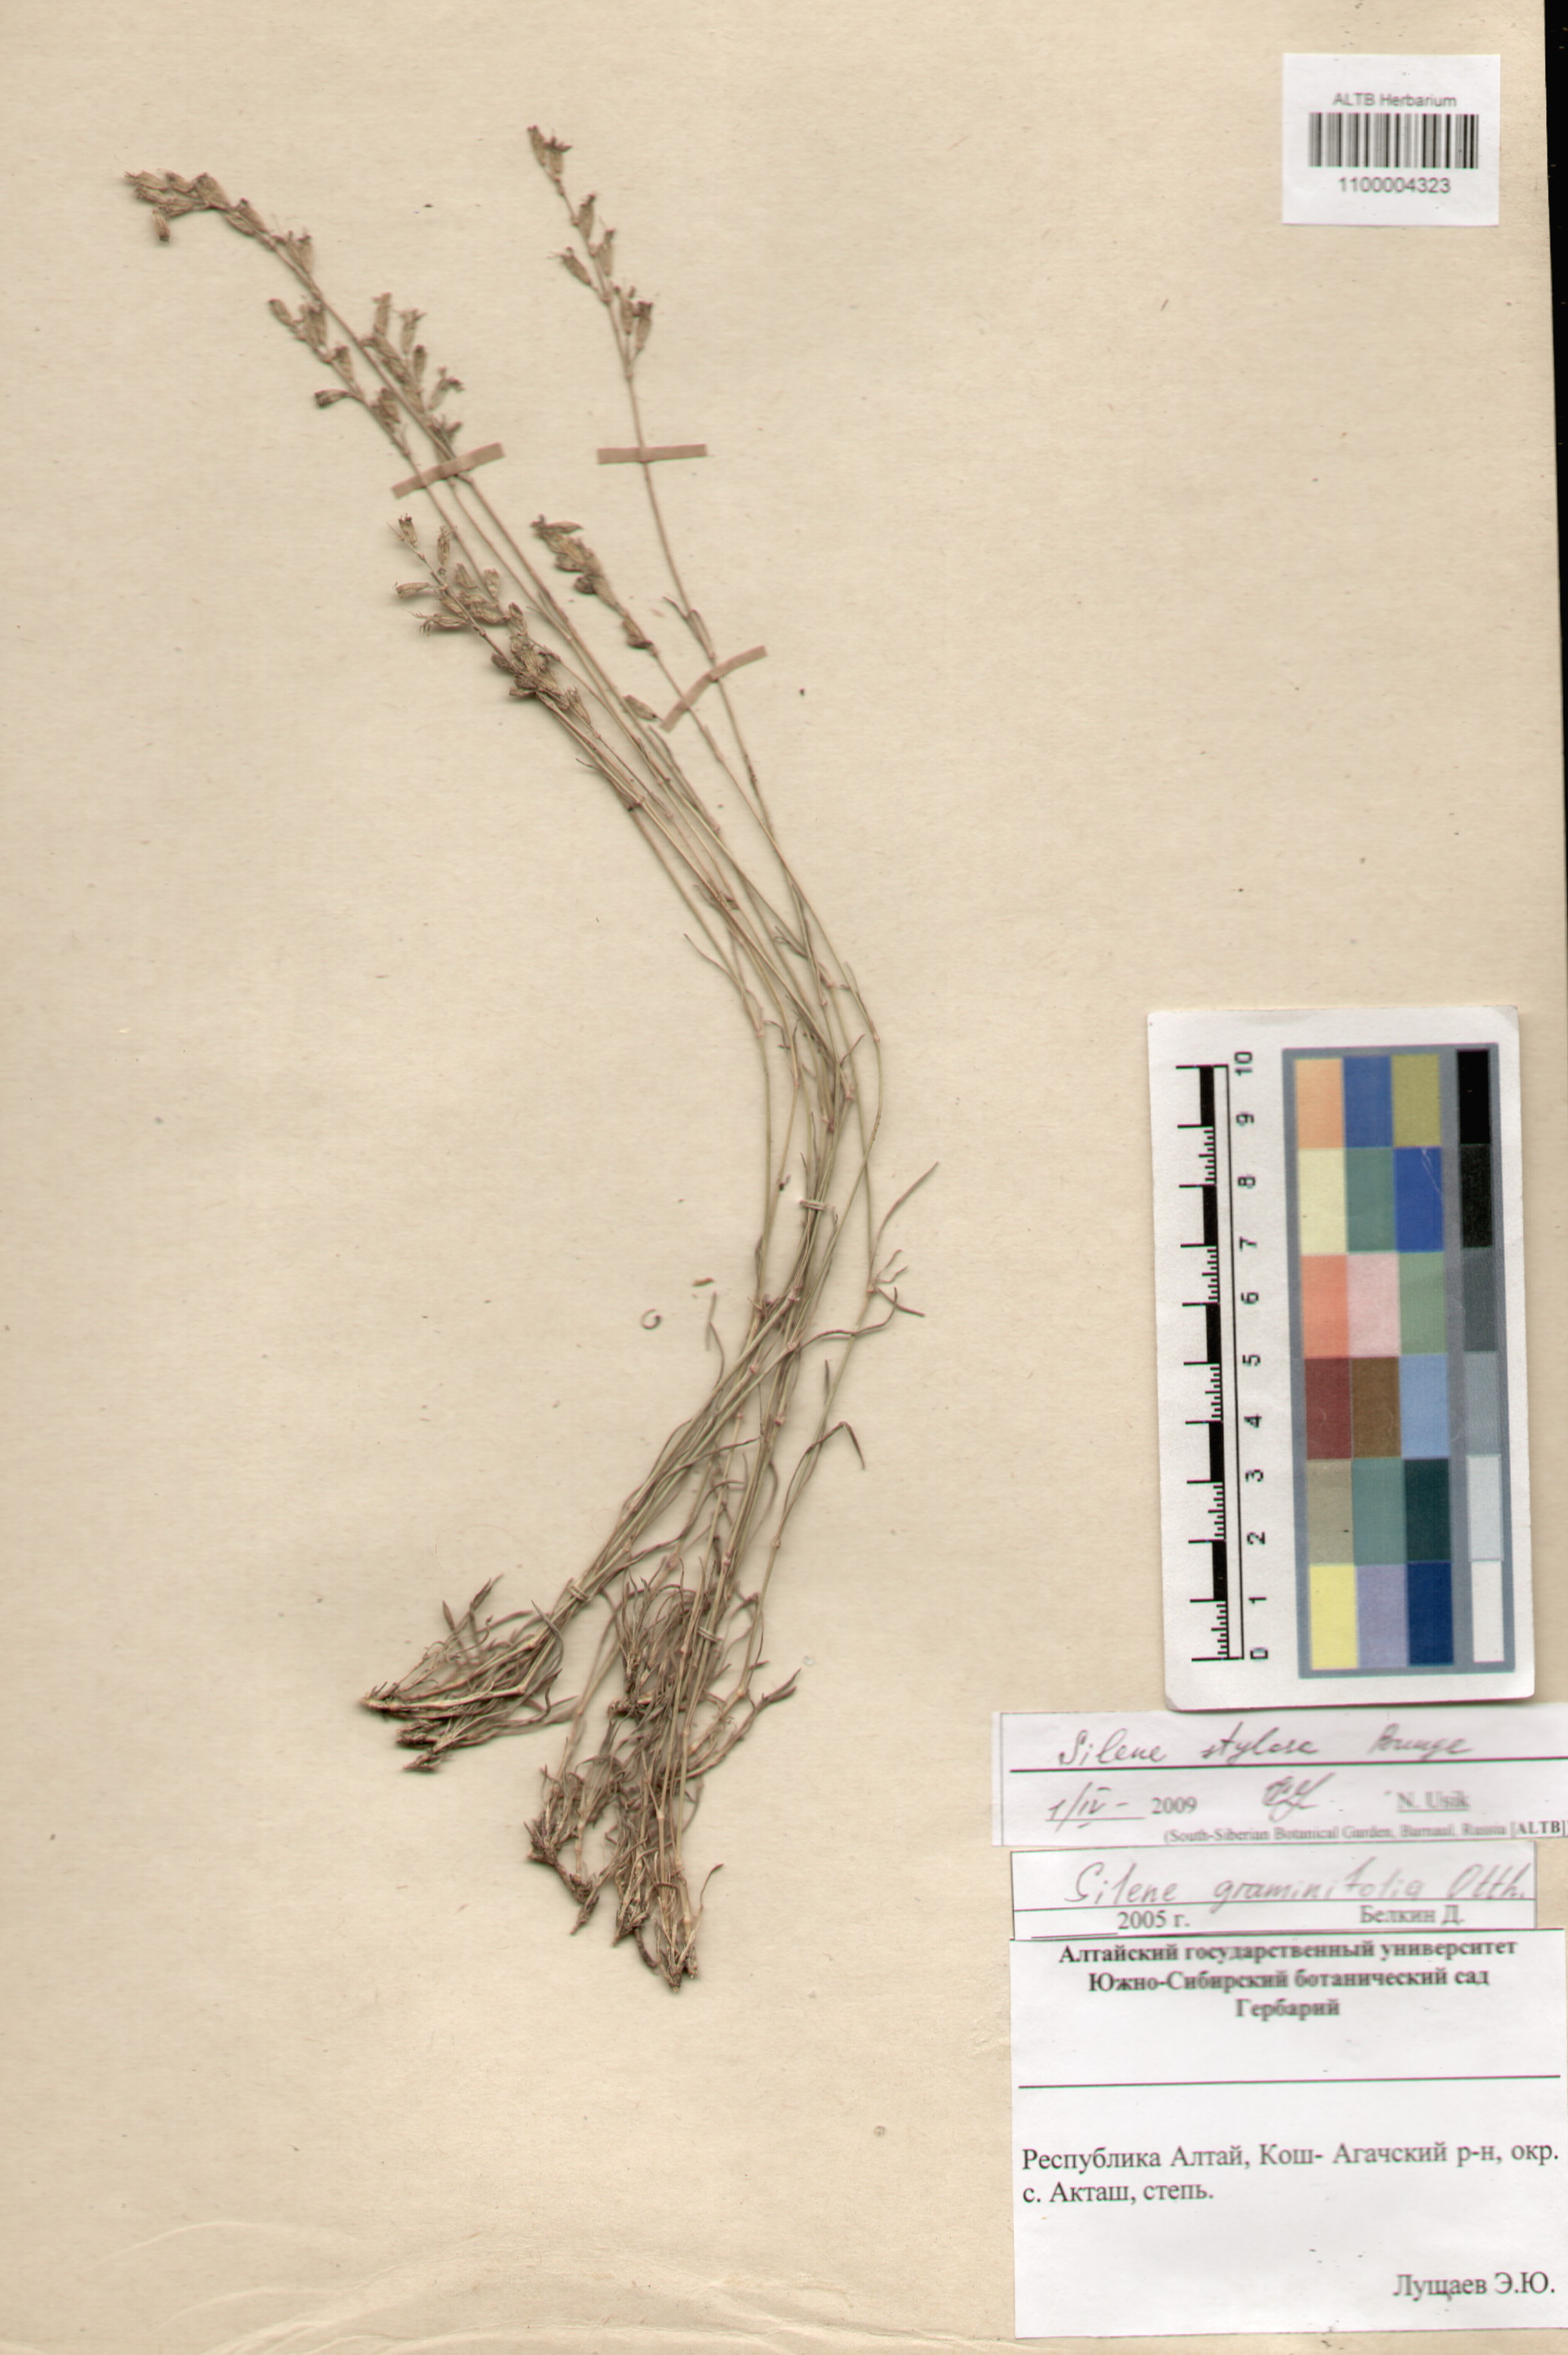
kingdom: Plantae
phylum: Tracheophyta
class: Magnoliopsida
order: Caryophyllales
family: Caryophyllaceae
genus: Silene
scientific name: Silene graminifolia
